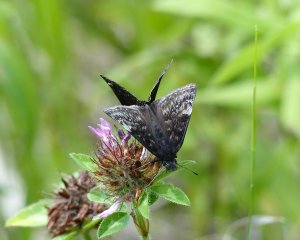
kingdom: Animalia
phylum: Arthropoda
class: Insecta
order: Lepidoptera
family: Hesperiidae
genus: Gesta
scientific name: Gesta
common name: Columbine Duskywing
